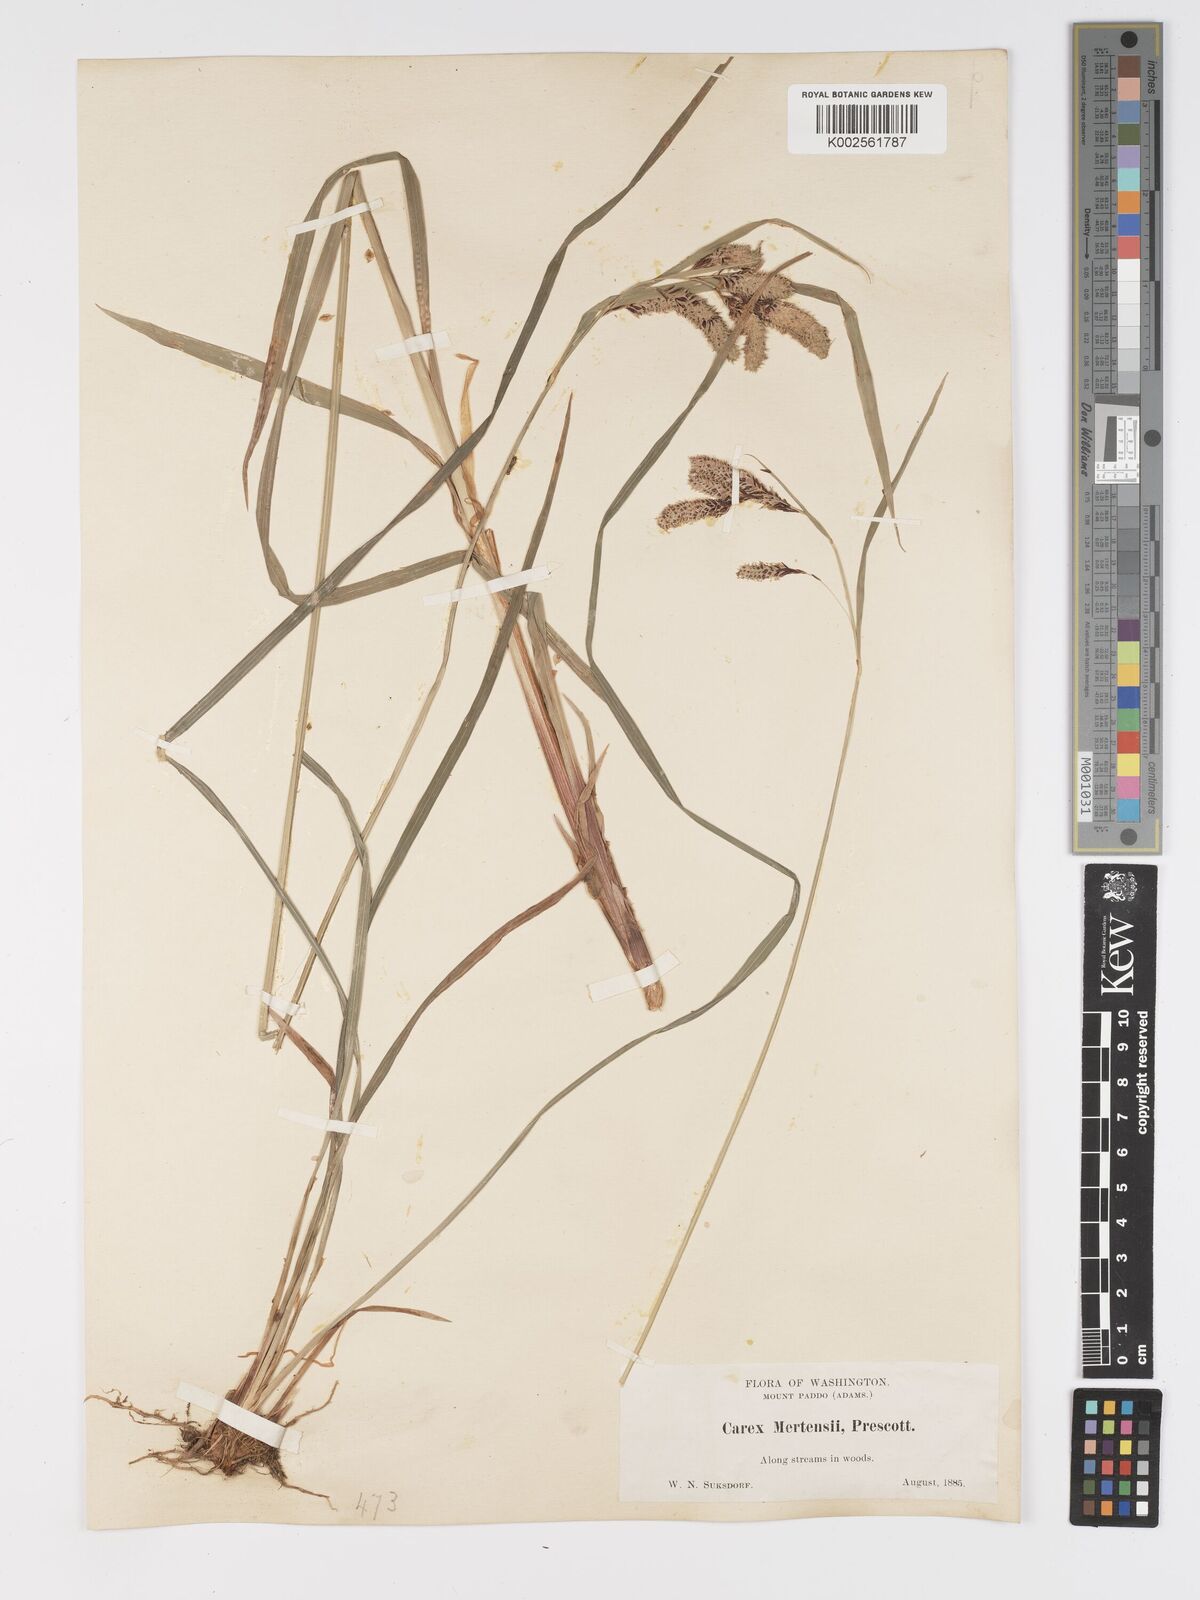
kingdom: Plantae
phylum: Tracheophyta
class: Liliopsida
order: Poales
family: Cyperaceae
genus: Carex
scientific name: Carex mertensii
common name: Mertens' sedge
